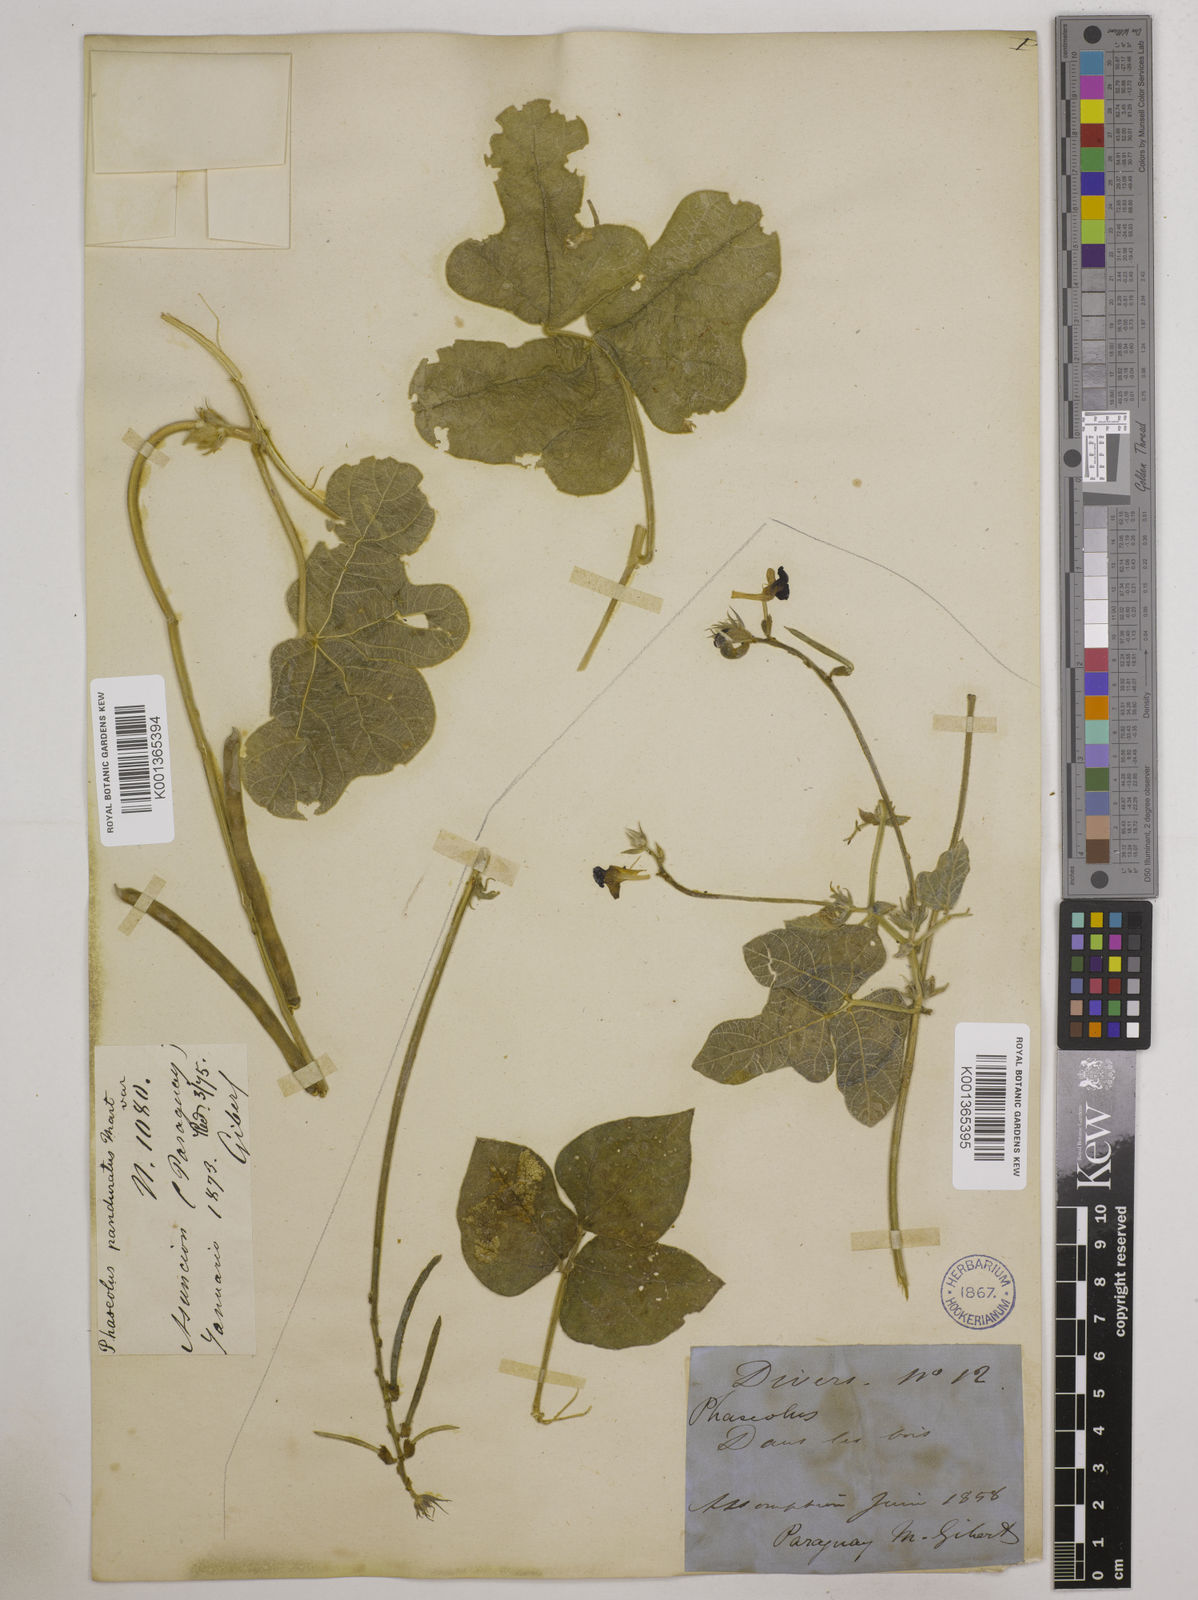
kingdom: Plantae
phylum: Tracheophyta
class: Magnoliopsida
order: Fabales
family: Fabaceae
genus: Macroptilium
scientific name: Macroptilium bracteatum
